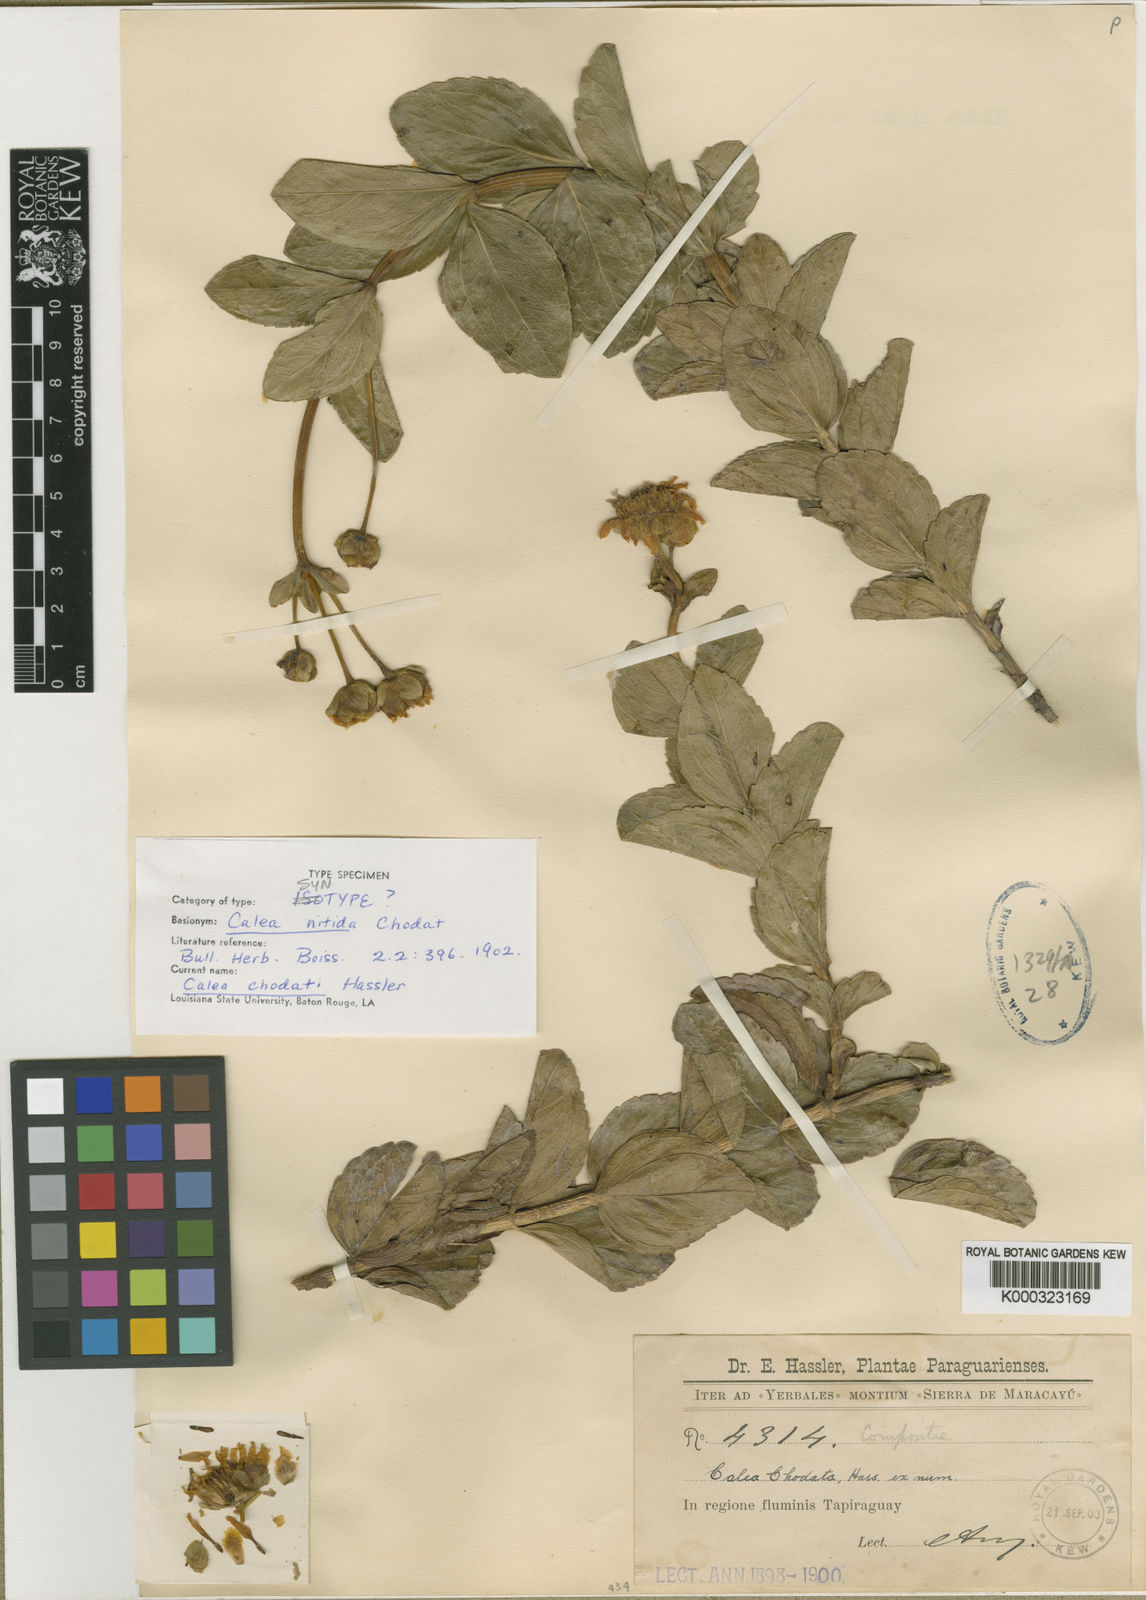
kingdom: Plantae
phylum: Tracheophyta
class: Magnoliopsida
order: Asterales
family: Asteraceae
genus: Calea
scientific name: Calea chodatii
